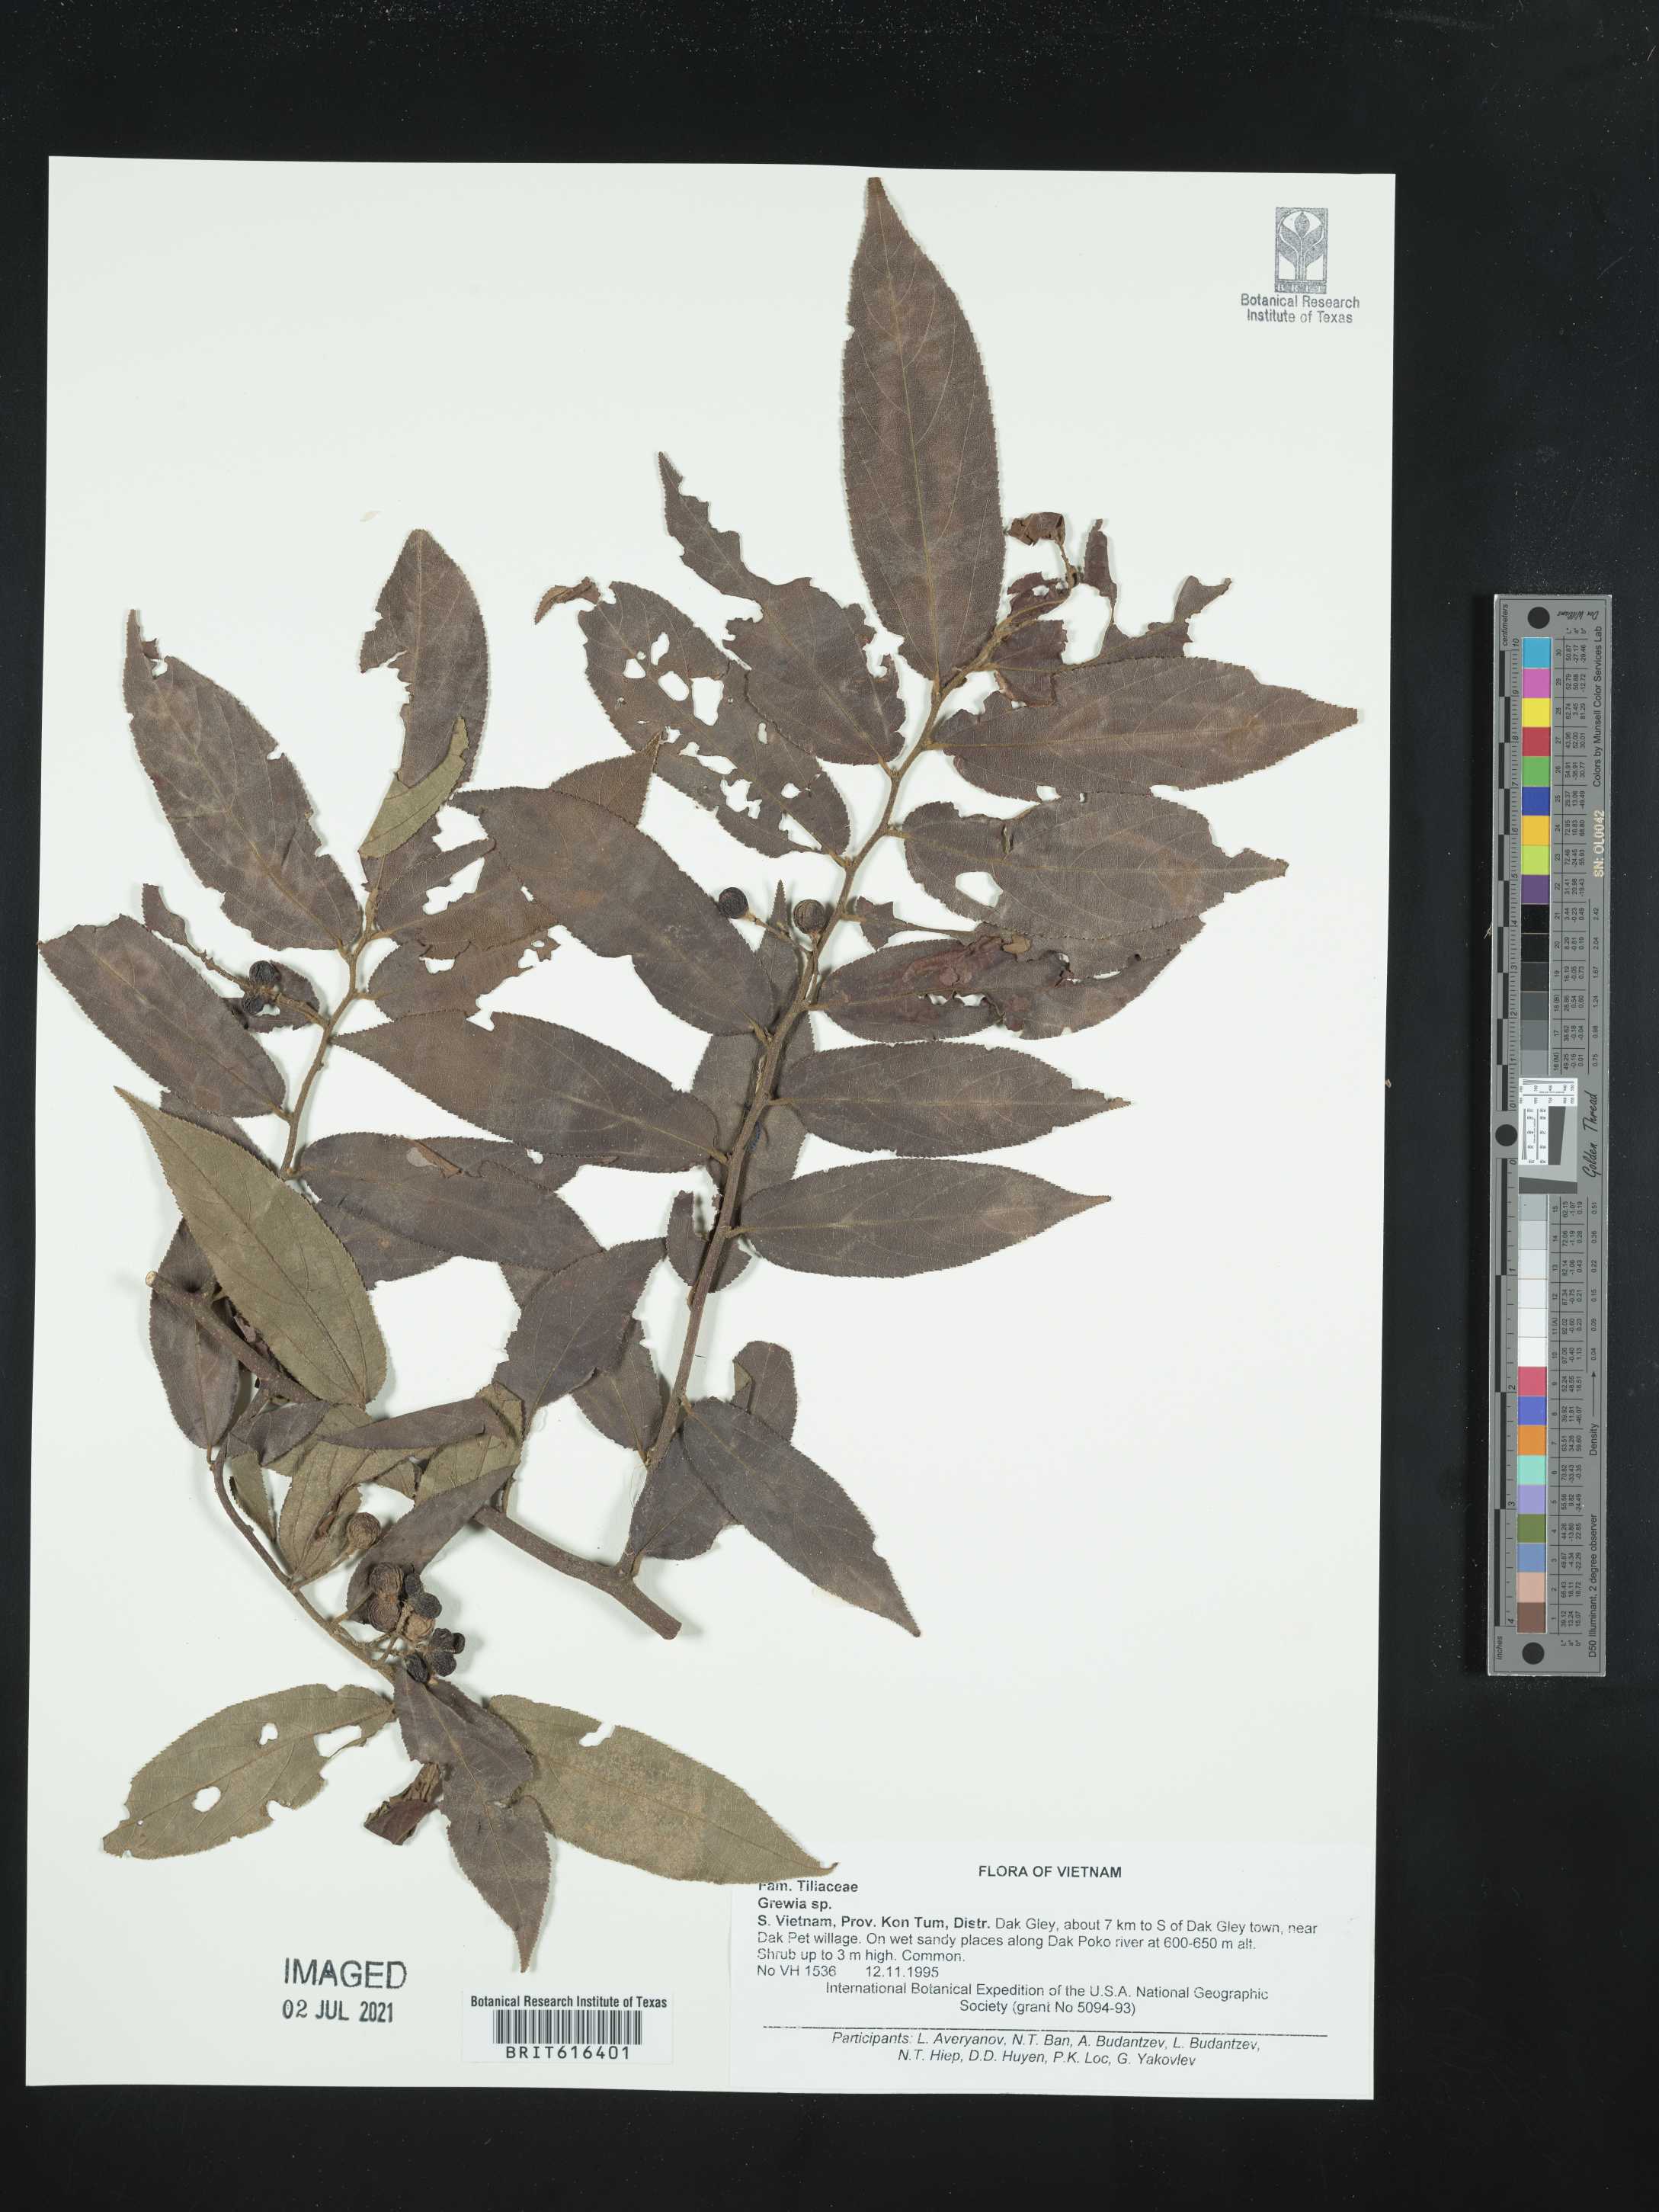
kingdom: Plantae
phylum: Tracheophyta
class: Magnoliopsida
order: Malvales
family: Malvaceae
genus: Grewia
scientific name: Grewia
